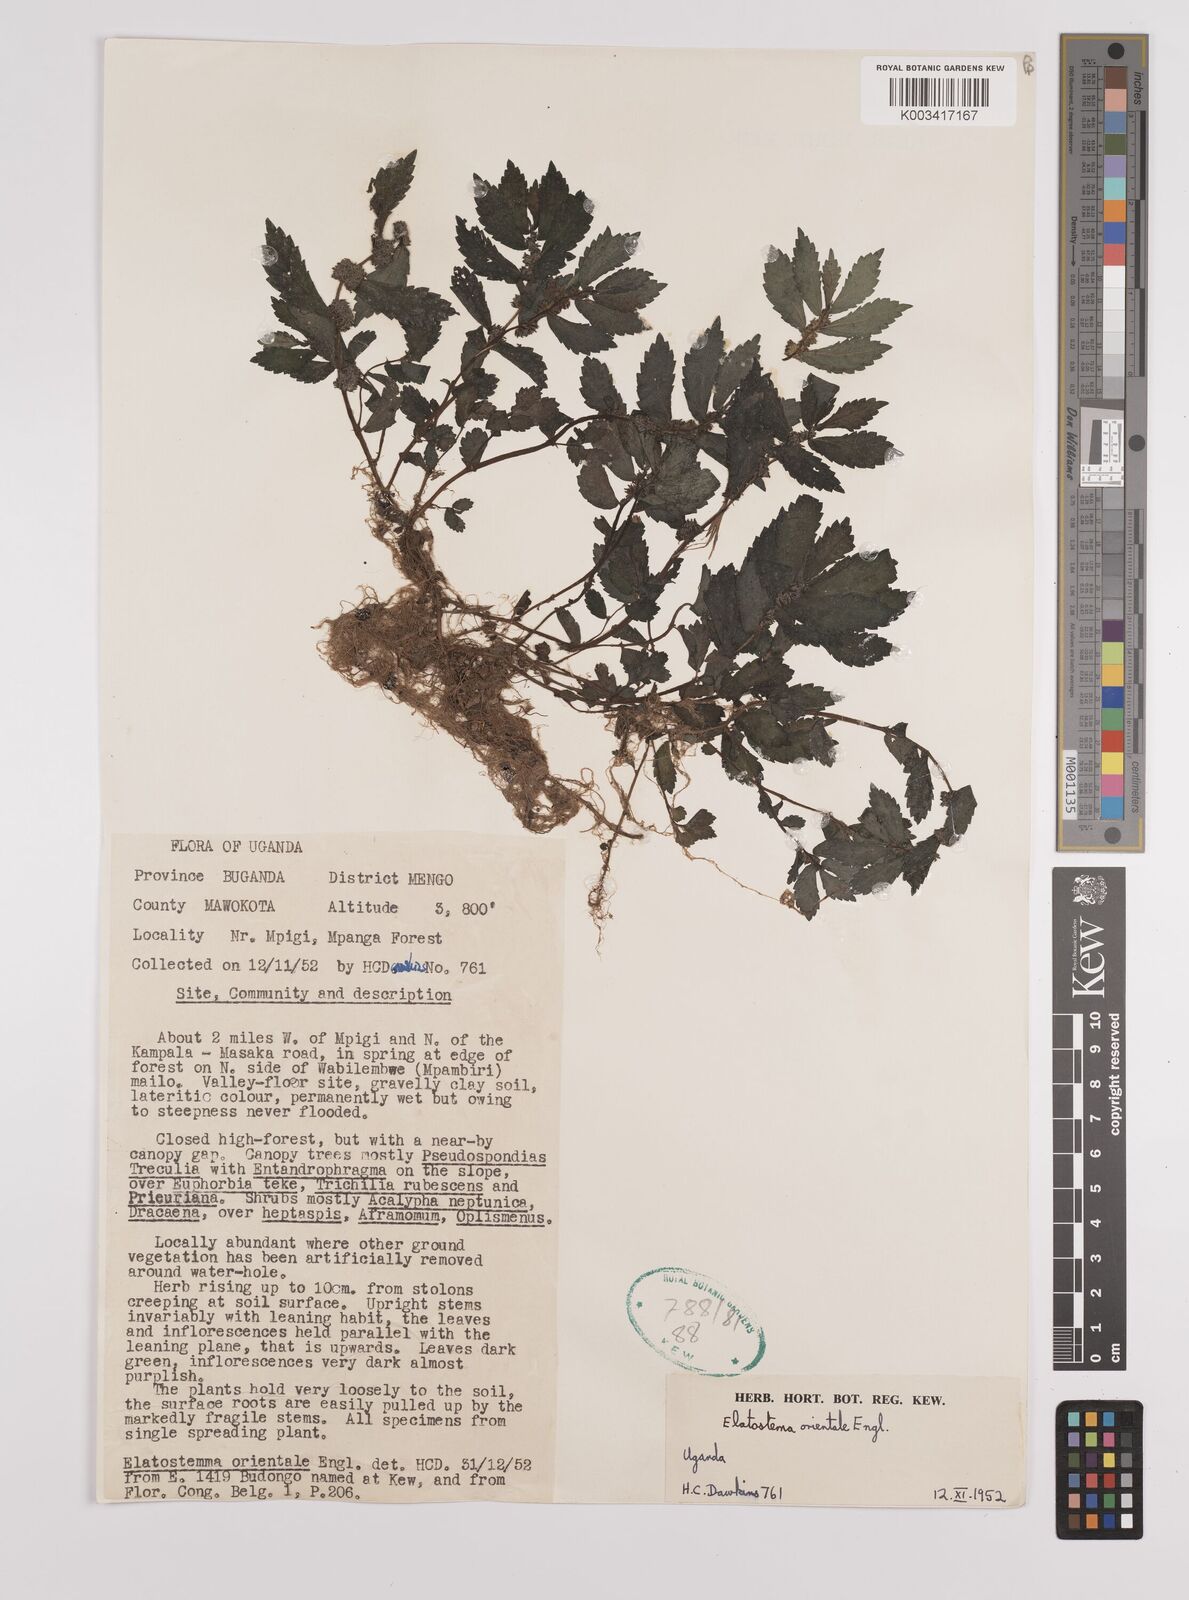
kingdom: Plantae
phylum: Tracheophyta
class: Magnoliopsida
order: Rosales
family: Urticaceae
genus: Elatostema
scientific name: Elatostema monticola
